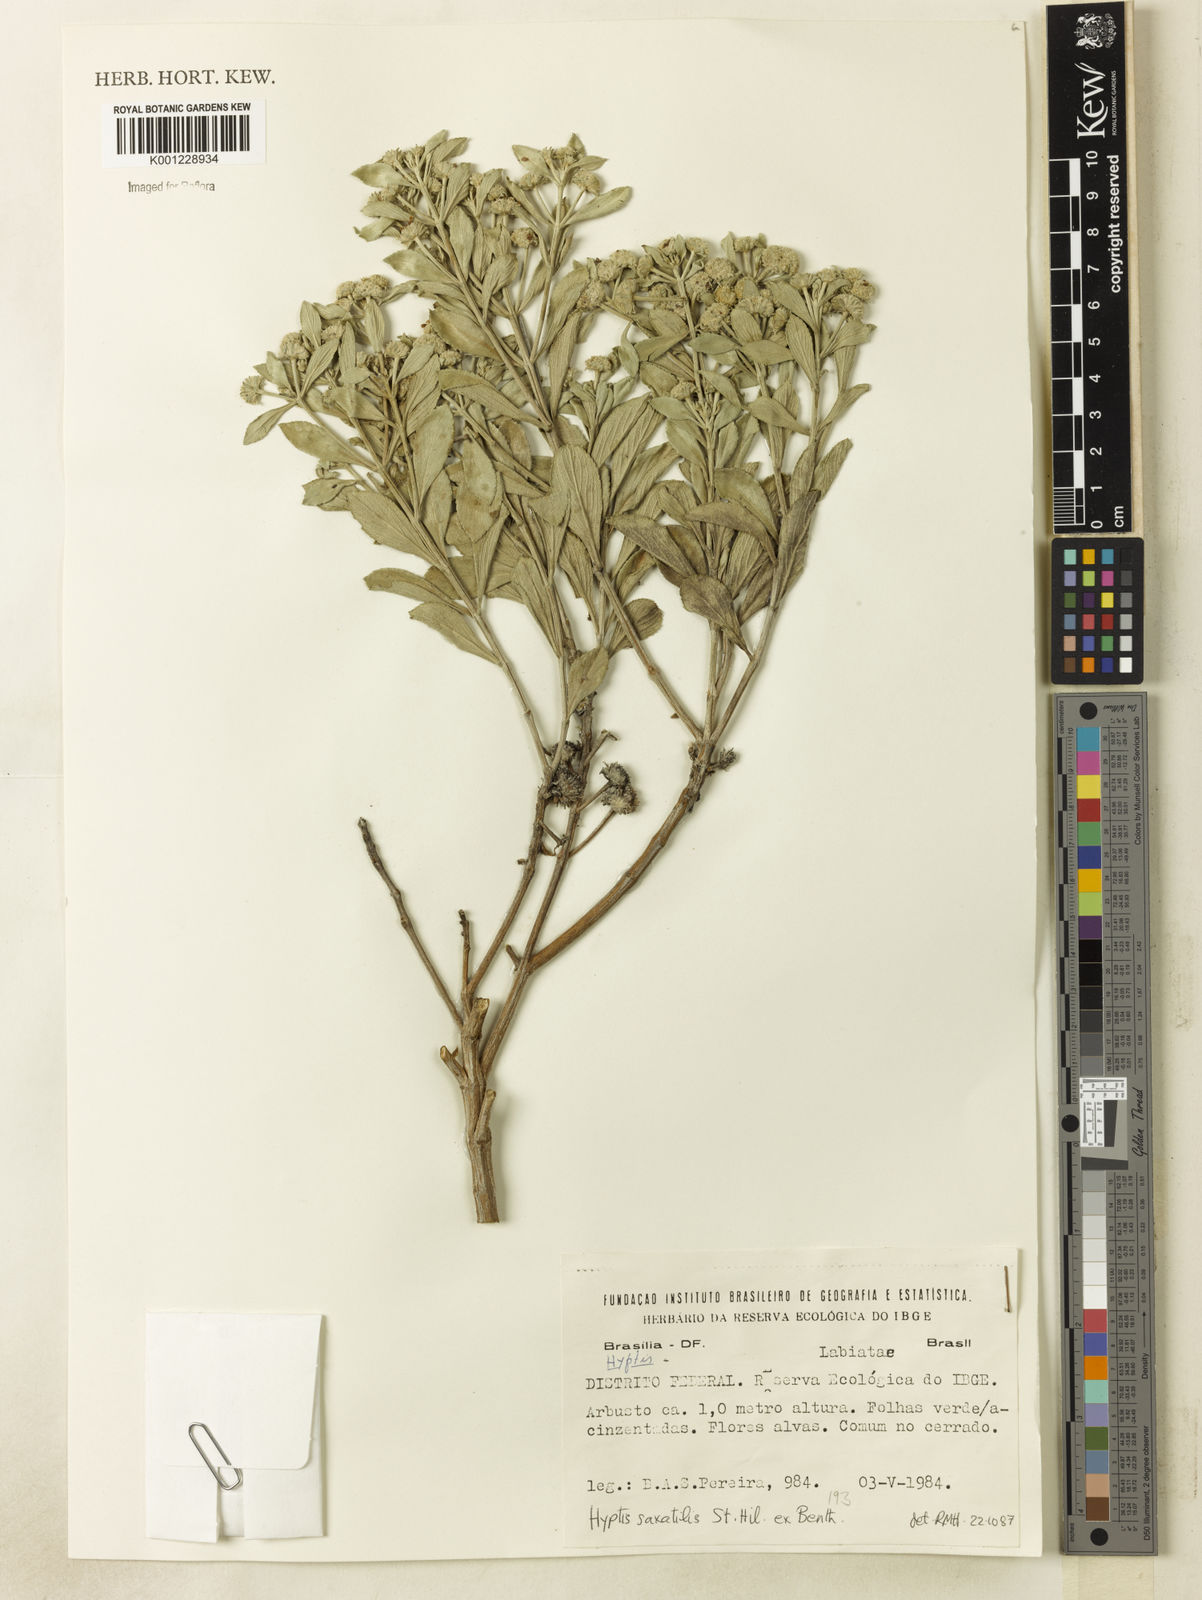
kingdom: Plantae
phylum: Tracheophyta
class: Magnoliopsida
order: Lamiales
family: Lamiaceae
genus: Hyptis
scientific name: Hyptis saxatilis
